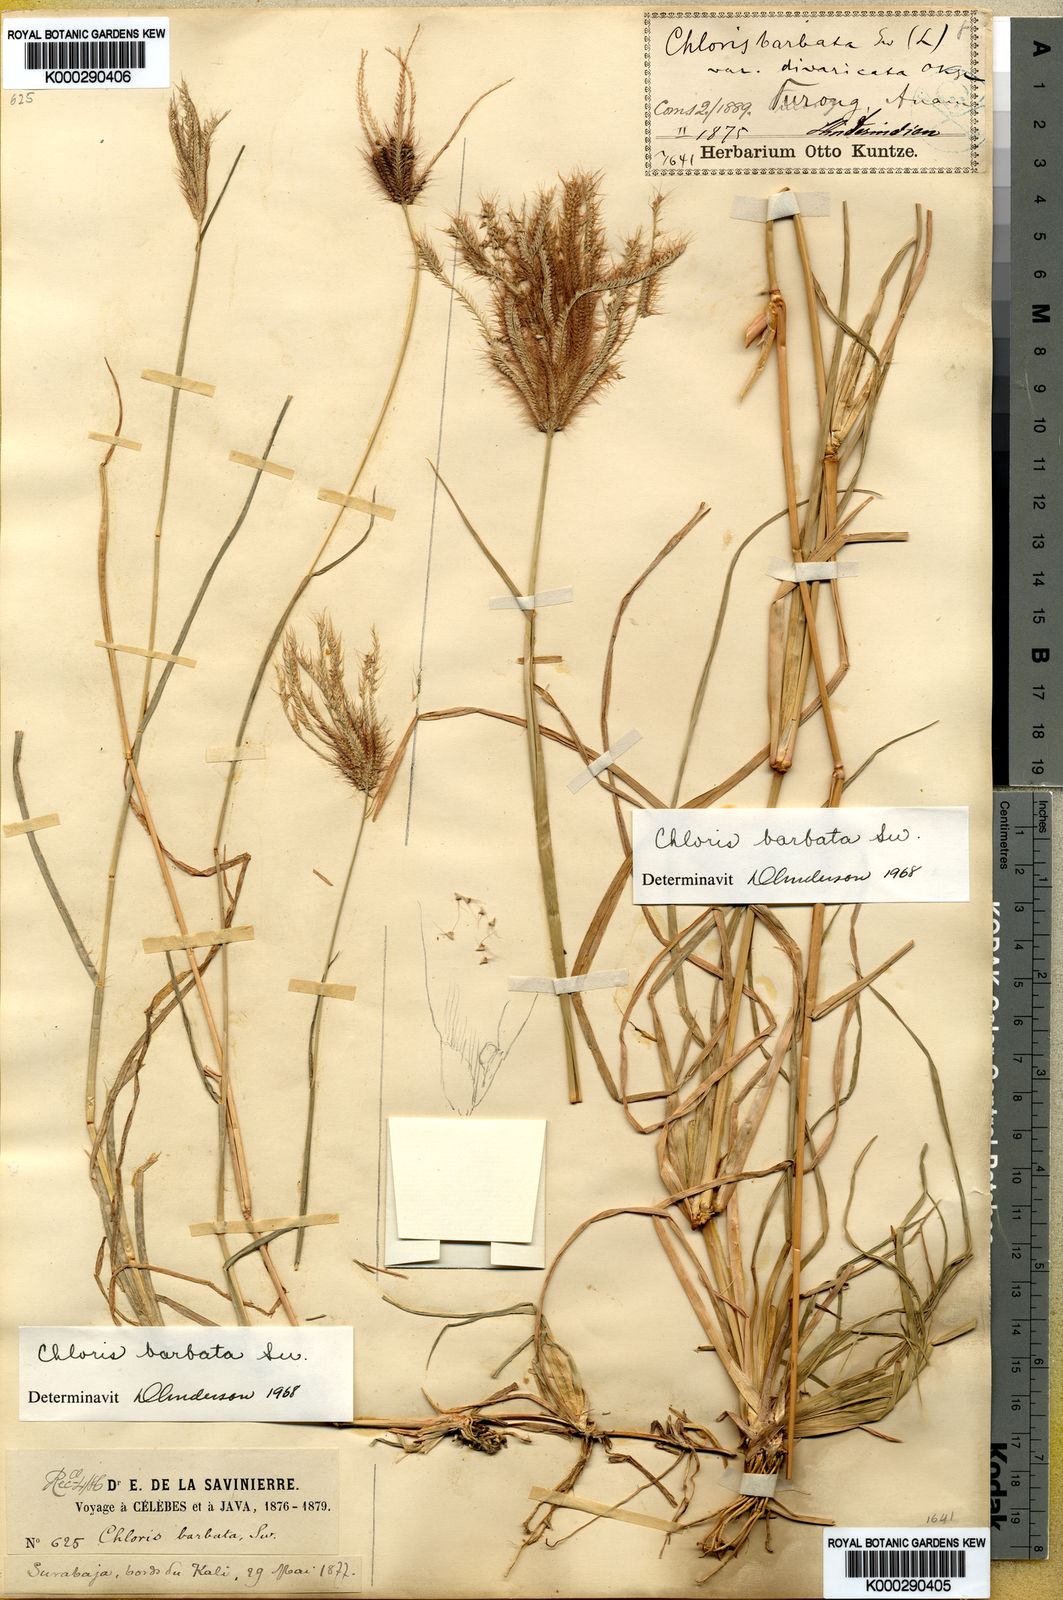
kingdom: Plantae
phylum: Tracheophyta
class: Liliopsida
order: Poales
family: Poaceae
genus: Chloris
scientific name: Chloris barbata
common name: Swollen fingergrass
